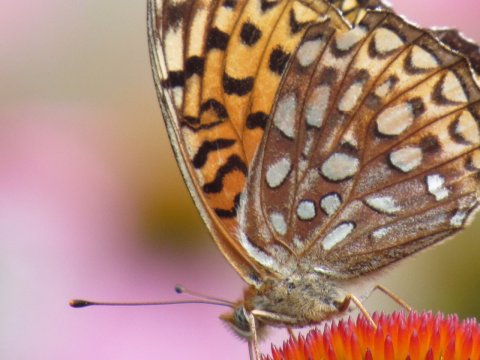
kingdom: Animalia
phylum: Arthropoda
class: Insecta
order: Lepidoptera
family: Nymphalidae
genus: Speyeria
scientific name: Speyeria atlantis
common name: Atlantis Fritillary
